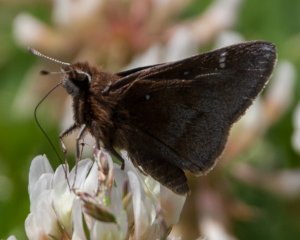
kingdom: Animalia
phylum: Arthropoda
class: Insecta
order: Lepidoptera
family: Hesperiidae
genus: Atrytonopsis
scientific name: Atrytonopsis hianna
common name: Dusted Skipper
